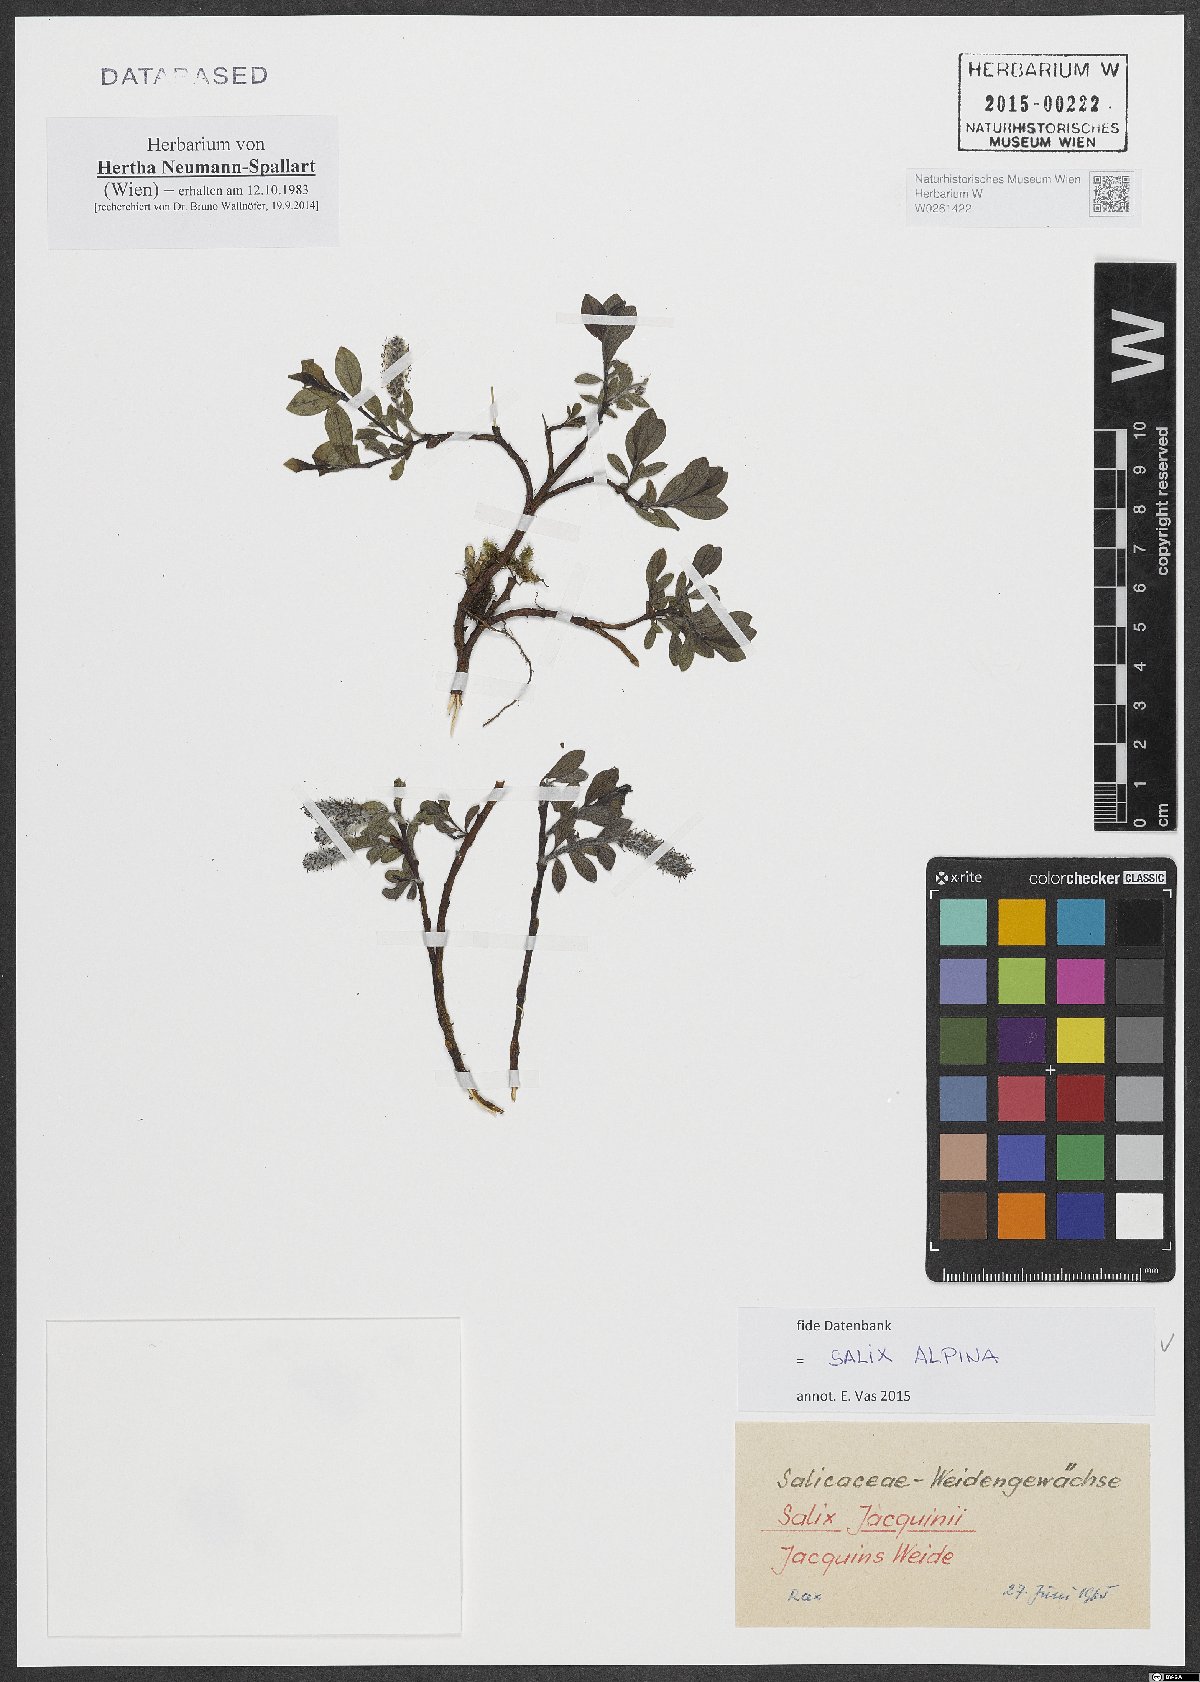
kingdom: Plantae
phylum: Tracheophyta
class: Magnoliopsida
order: Malpighiales
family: Salicaceae
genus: Salix
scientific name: Salix alpina
